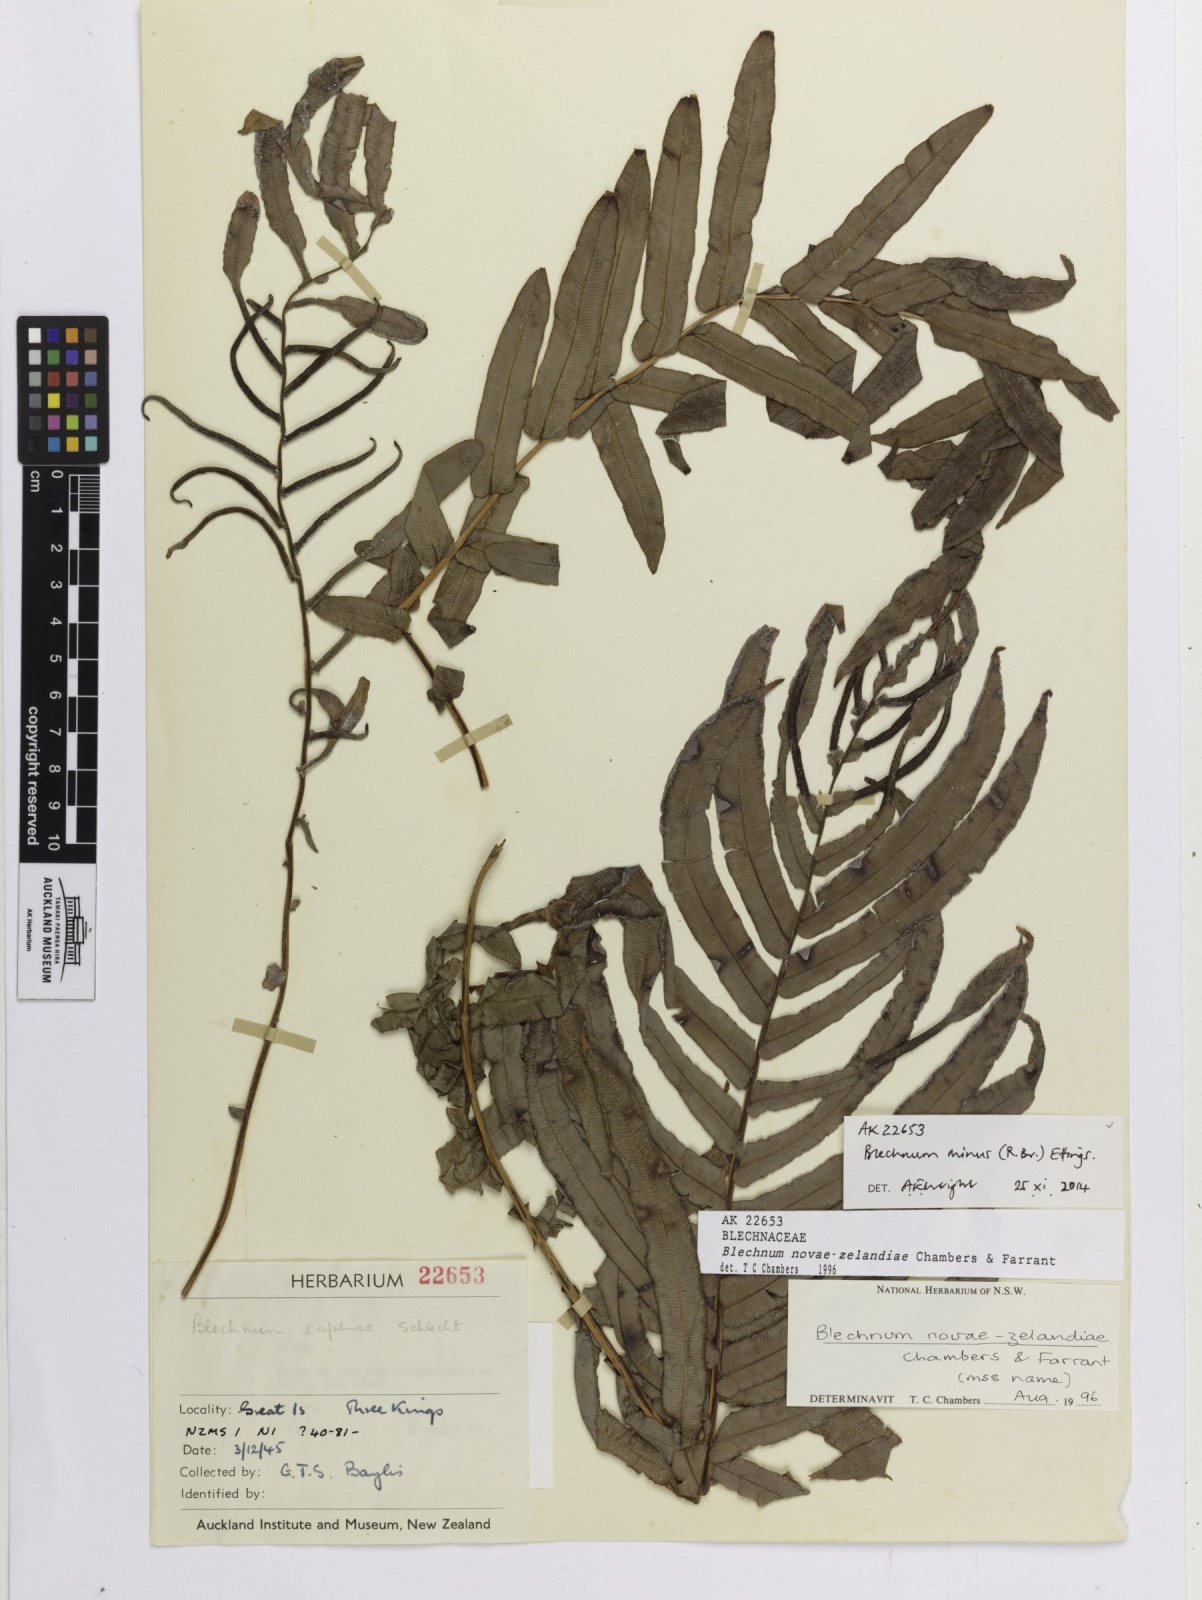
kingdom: Plantae
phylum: Tracheophyta
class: Polypodiopsida
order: Polypodiales
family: Blechnaceae
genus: Parablechnum
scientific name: Parablechnum novae-zelandiae
